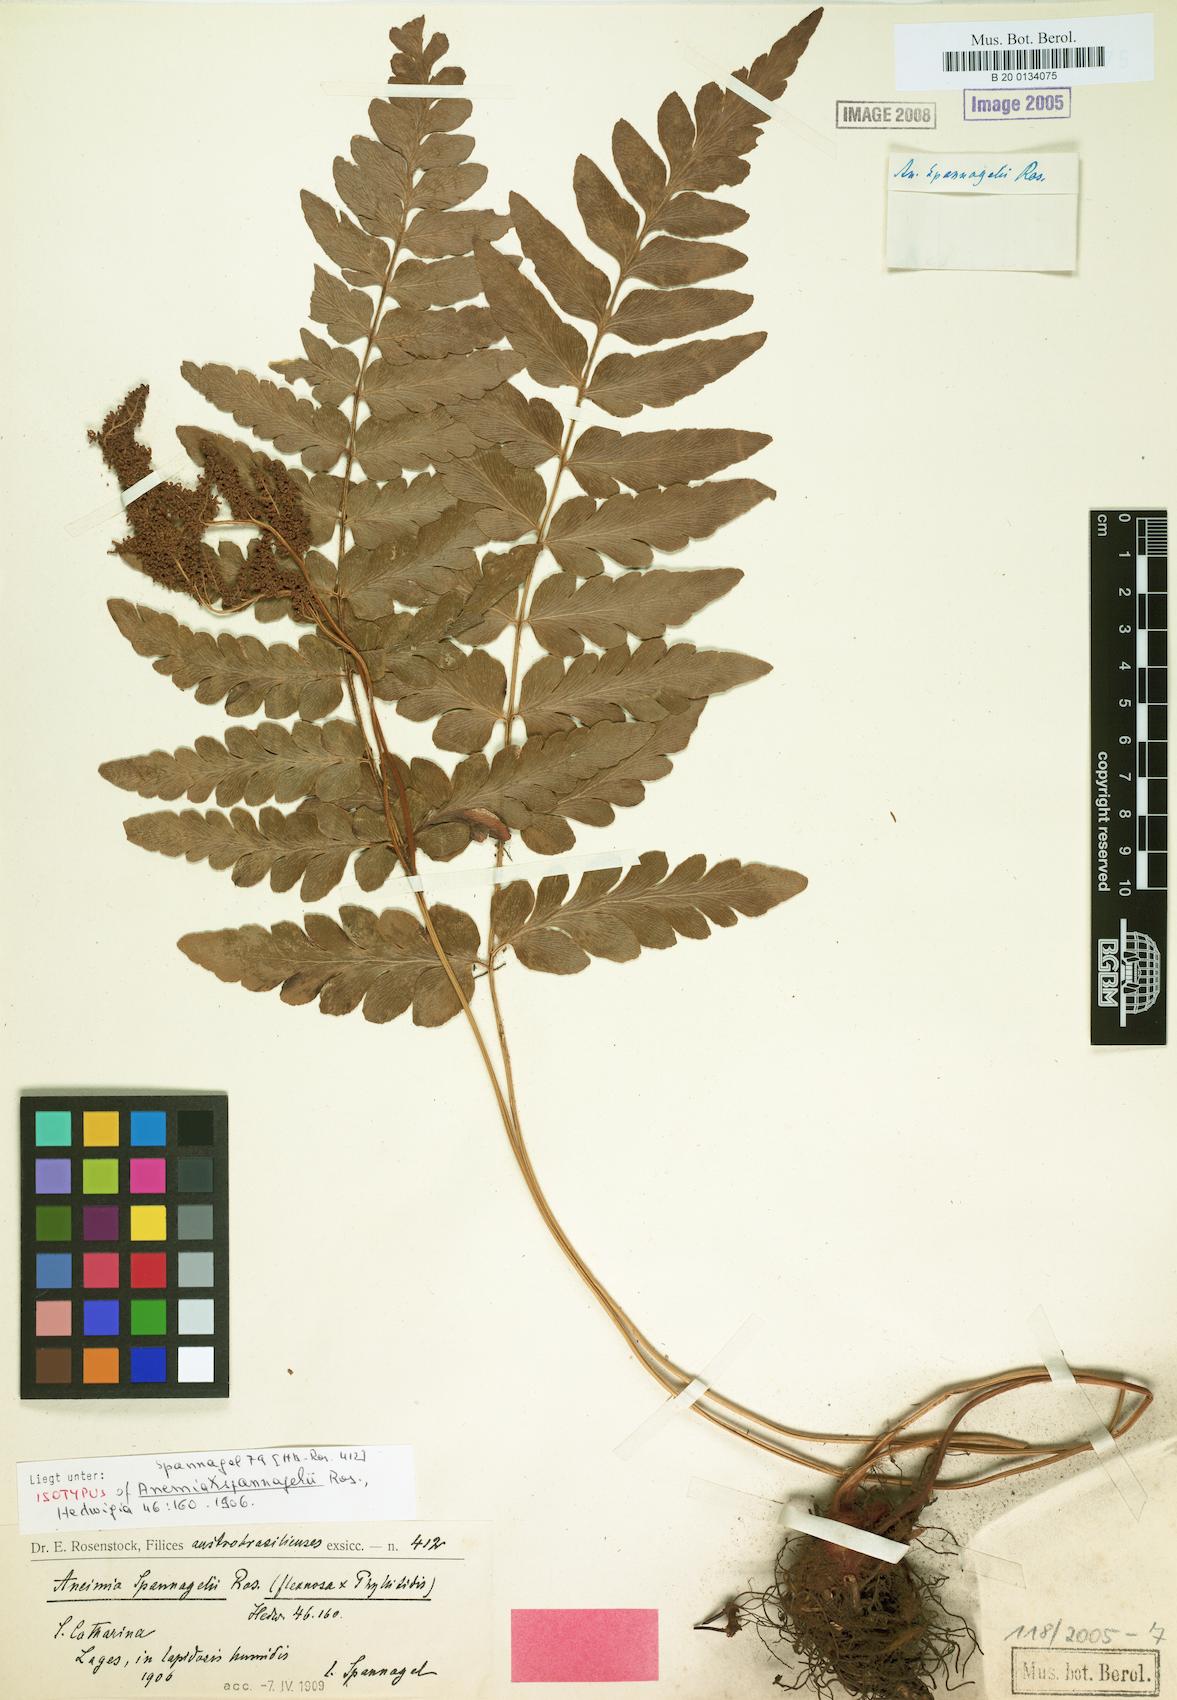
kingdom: Plantae
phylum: Tracheophyta
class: Polypodiopsida
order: Schizaeales
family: Anemiaceae
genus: Anemia
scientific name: Anemia spannagelii
